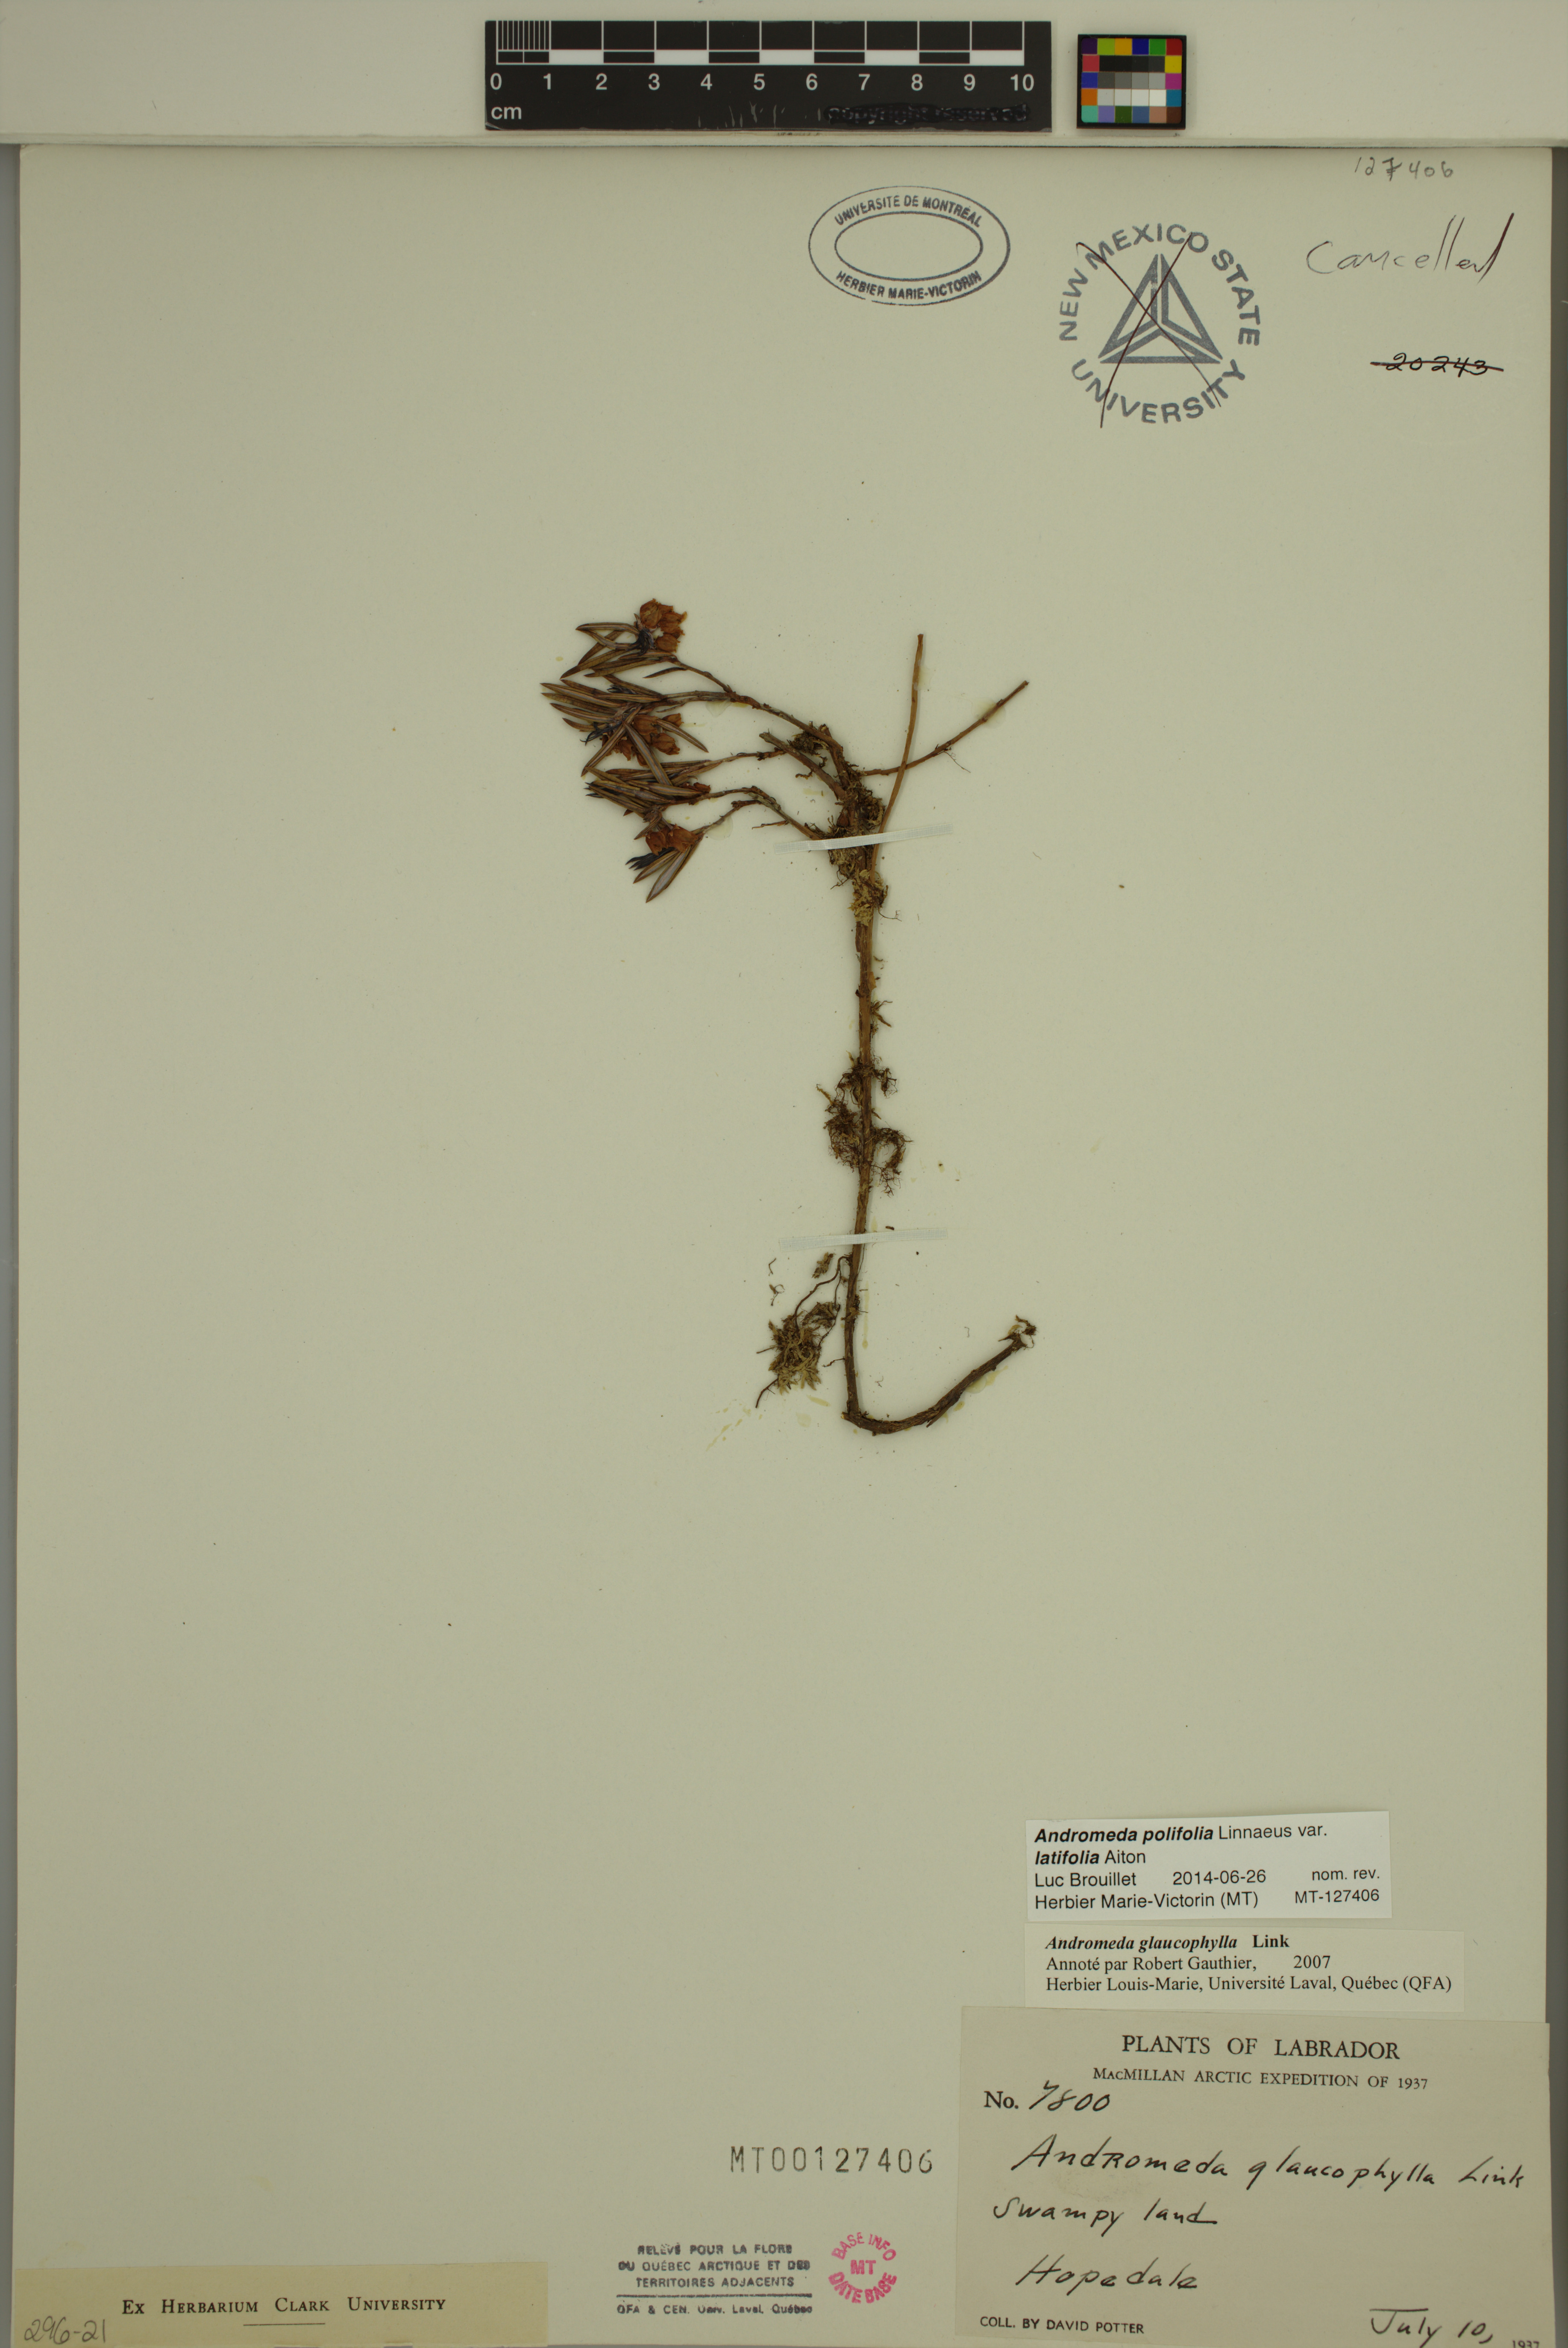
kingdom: Plantae
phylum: Tracheophyta
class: Magnoliopsida
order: Ericales
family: Ericaceae
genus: Andromeda
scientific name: Andromeda polifolia
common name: Bog-rosemary
